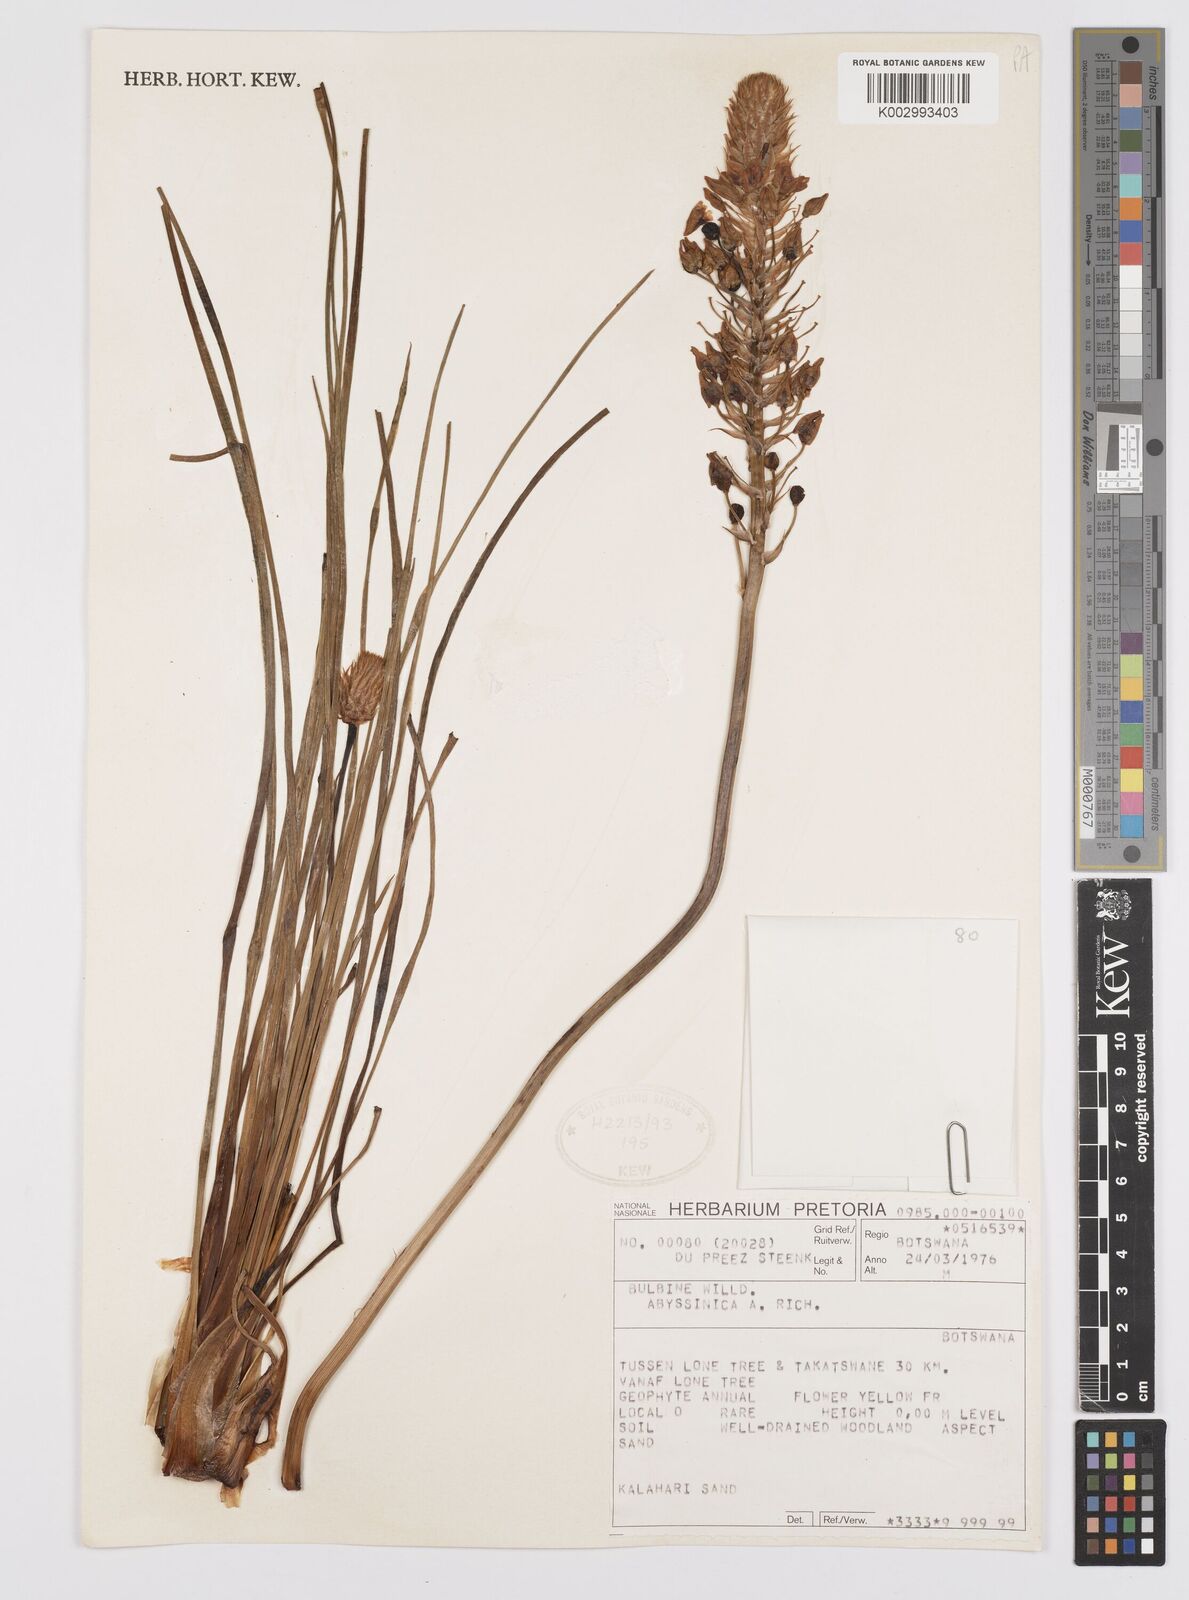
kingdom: Plantae
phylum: Tracheophyta
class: Liliopsida
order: Asparagales
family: Asphodelaceae
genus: Bulbine
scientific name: Bulbine abyssinica
